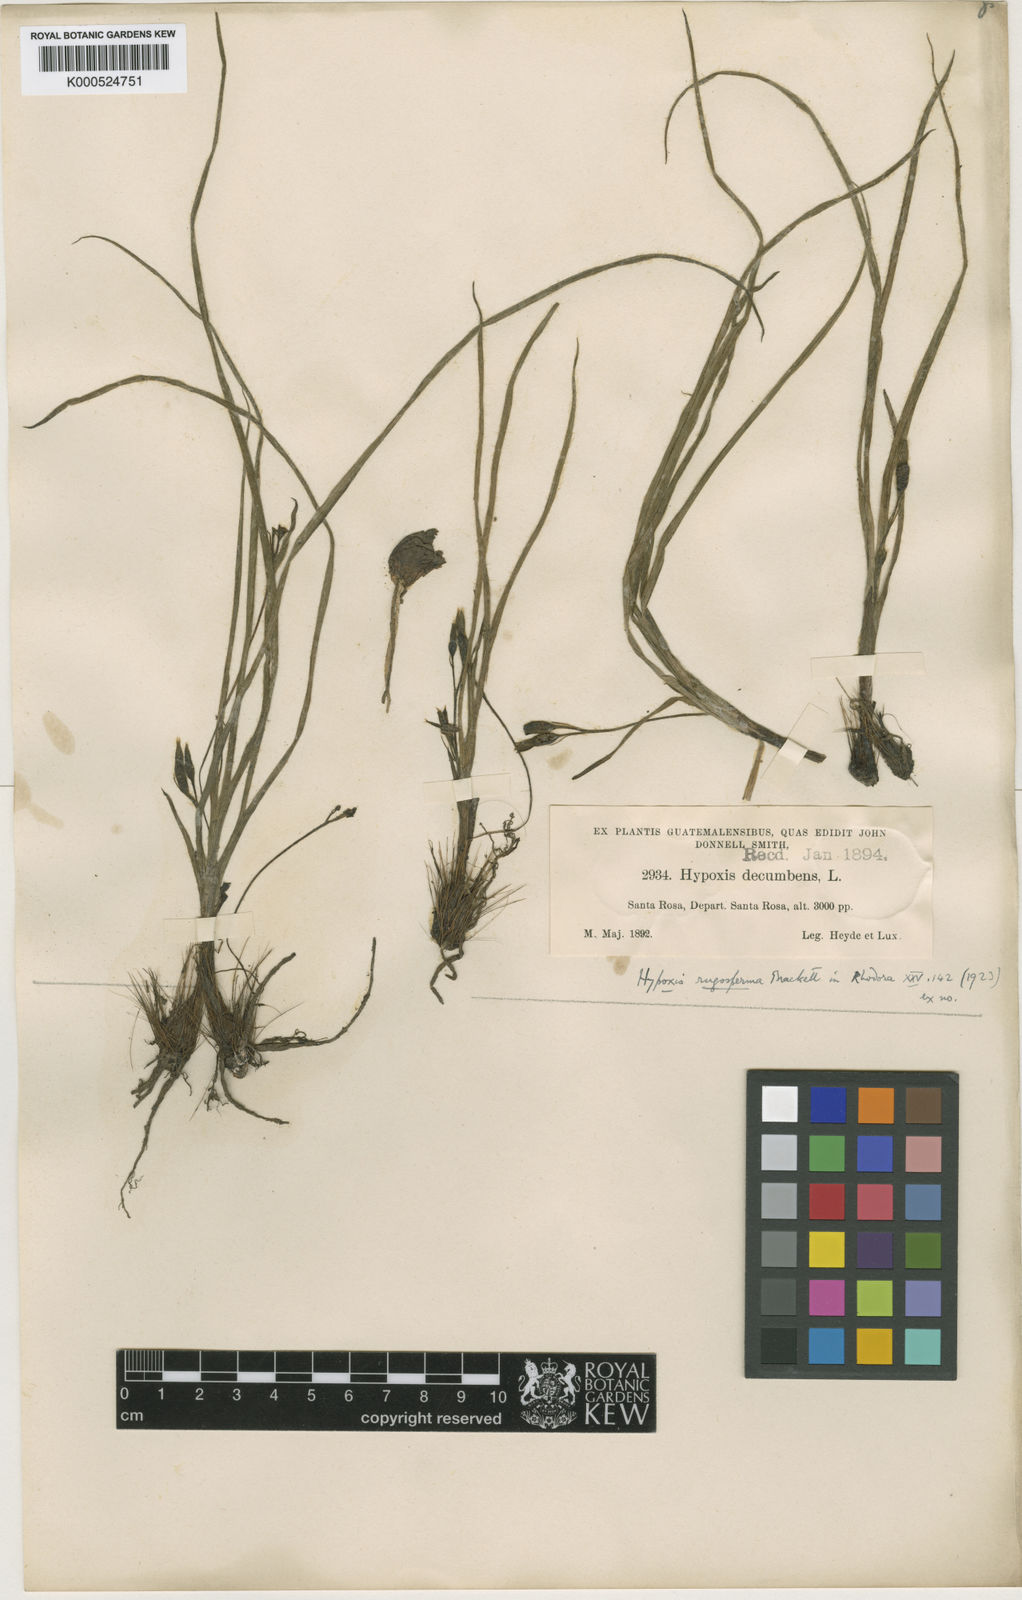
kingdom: Plantae
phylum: Tracheophyta
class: Liliopsida
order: Asparagales
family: Hypoxidaceae
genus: Hypoxis
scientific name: Hypoxis humilis
